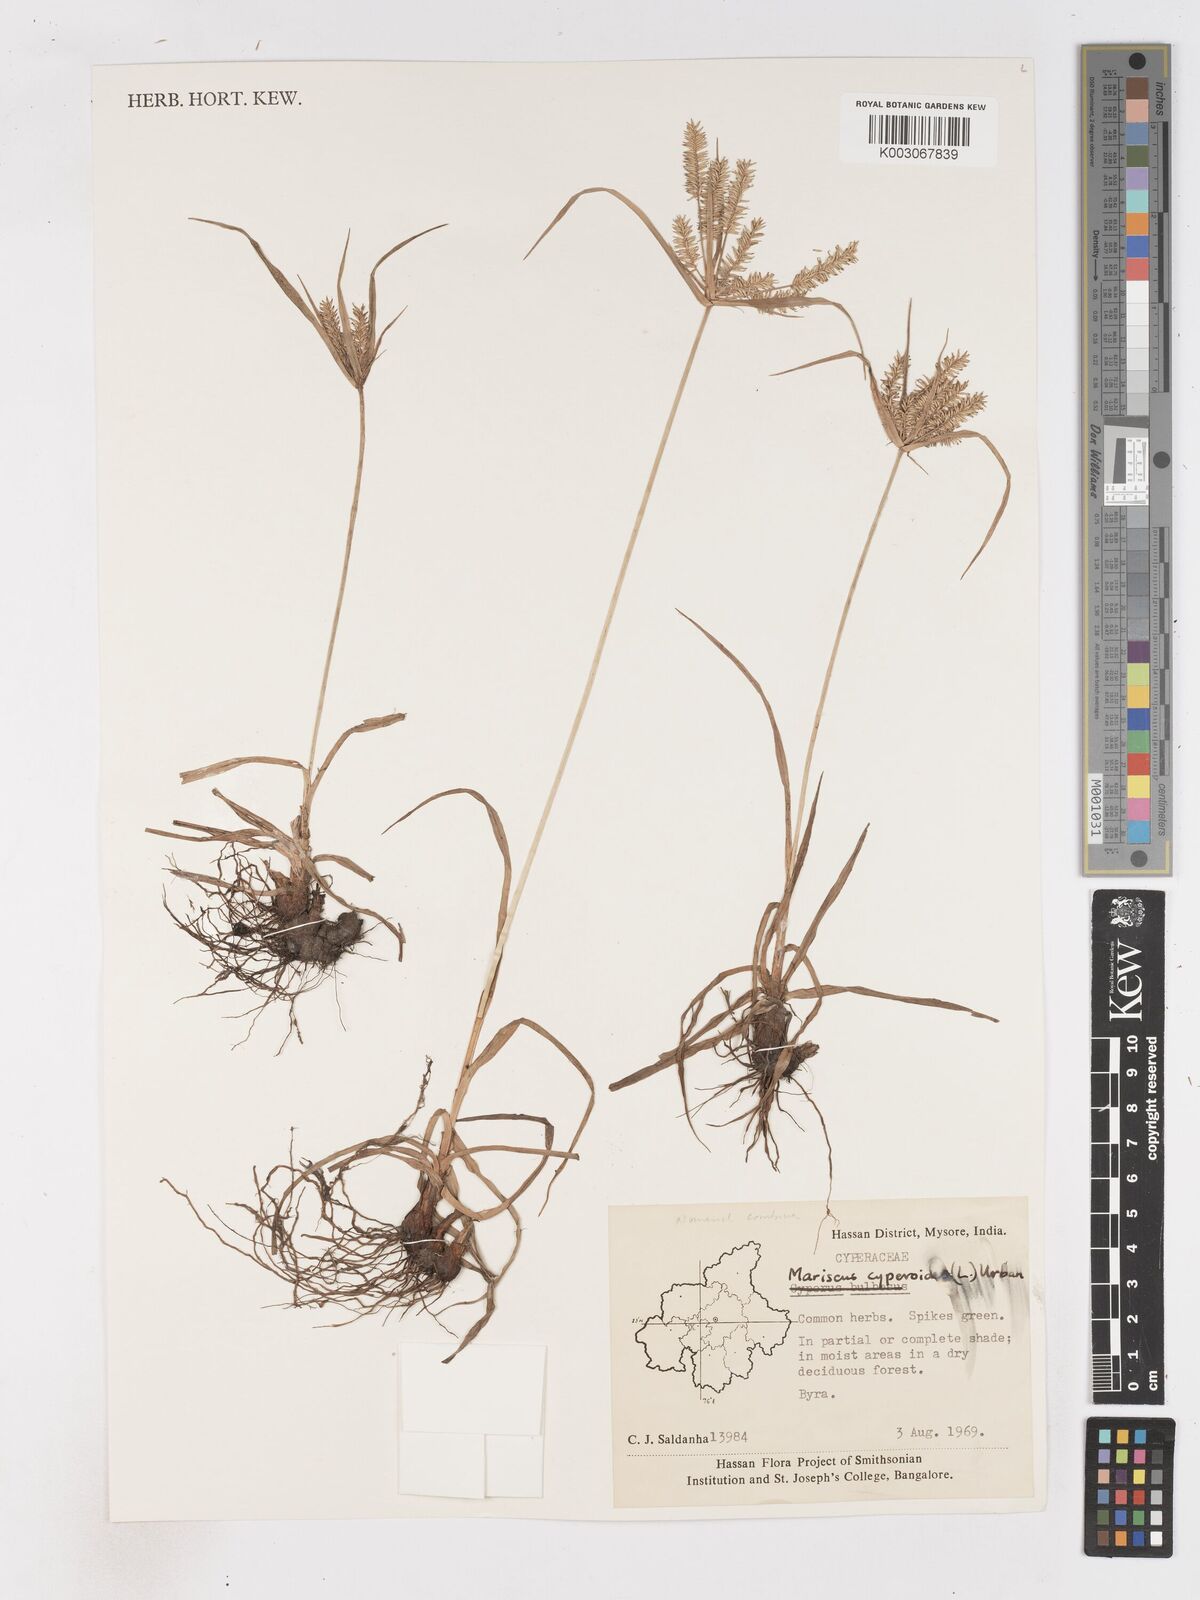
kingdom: Plantae
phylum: Tracheophyta
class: Liliopsida
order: Poales
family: Cyperaceae
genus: Cyperus
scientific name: Cyperus cyperoides
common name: Pacific island flat sedge
